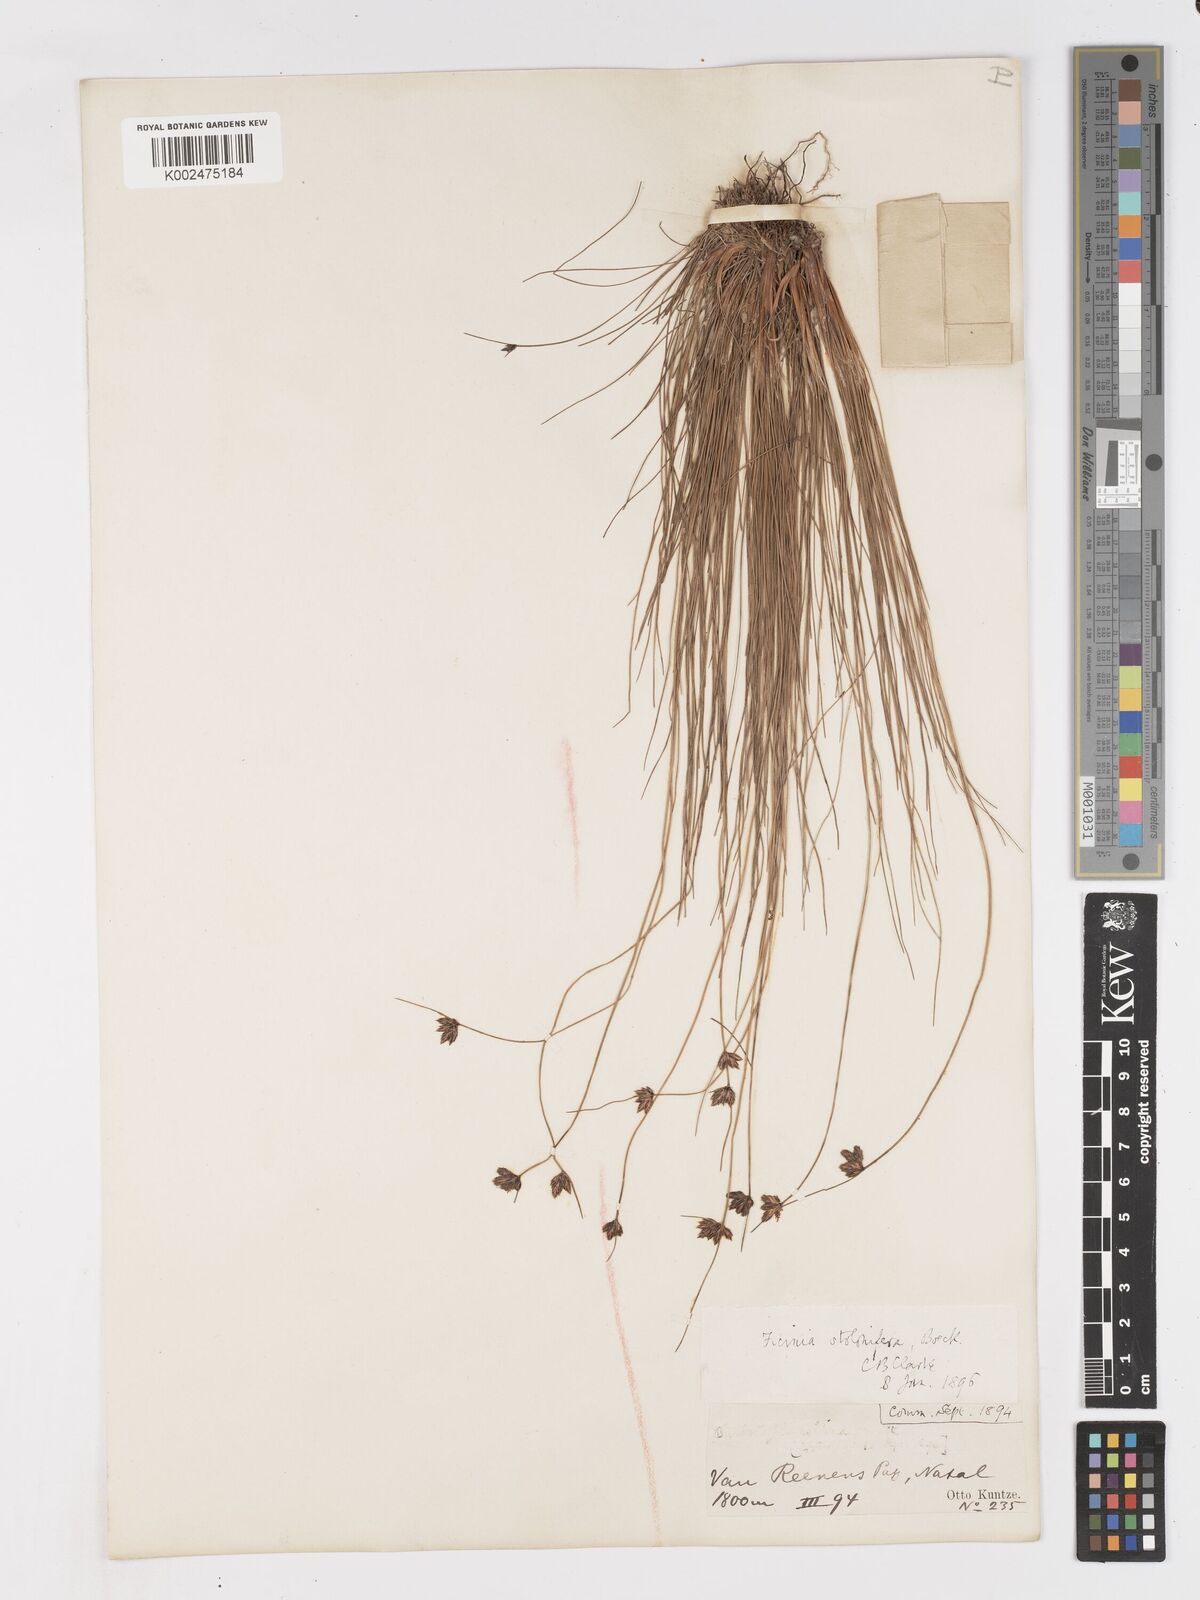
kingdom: Plantae
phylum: Tracheophyta
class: Liliopsida
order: Poales
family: Cyperaceae
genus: Ficinia
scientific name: Ficinia stolonifera
